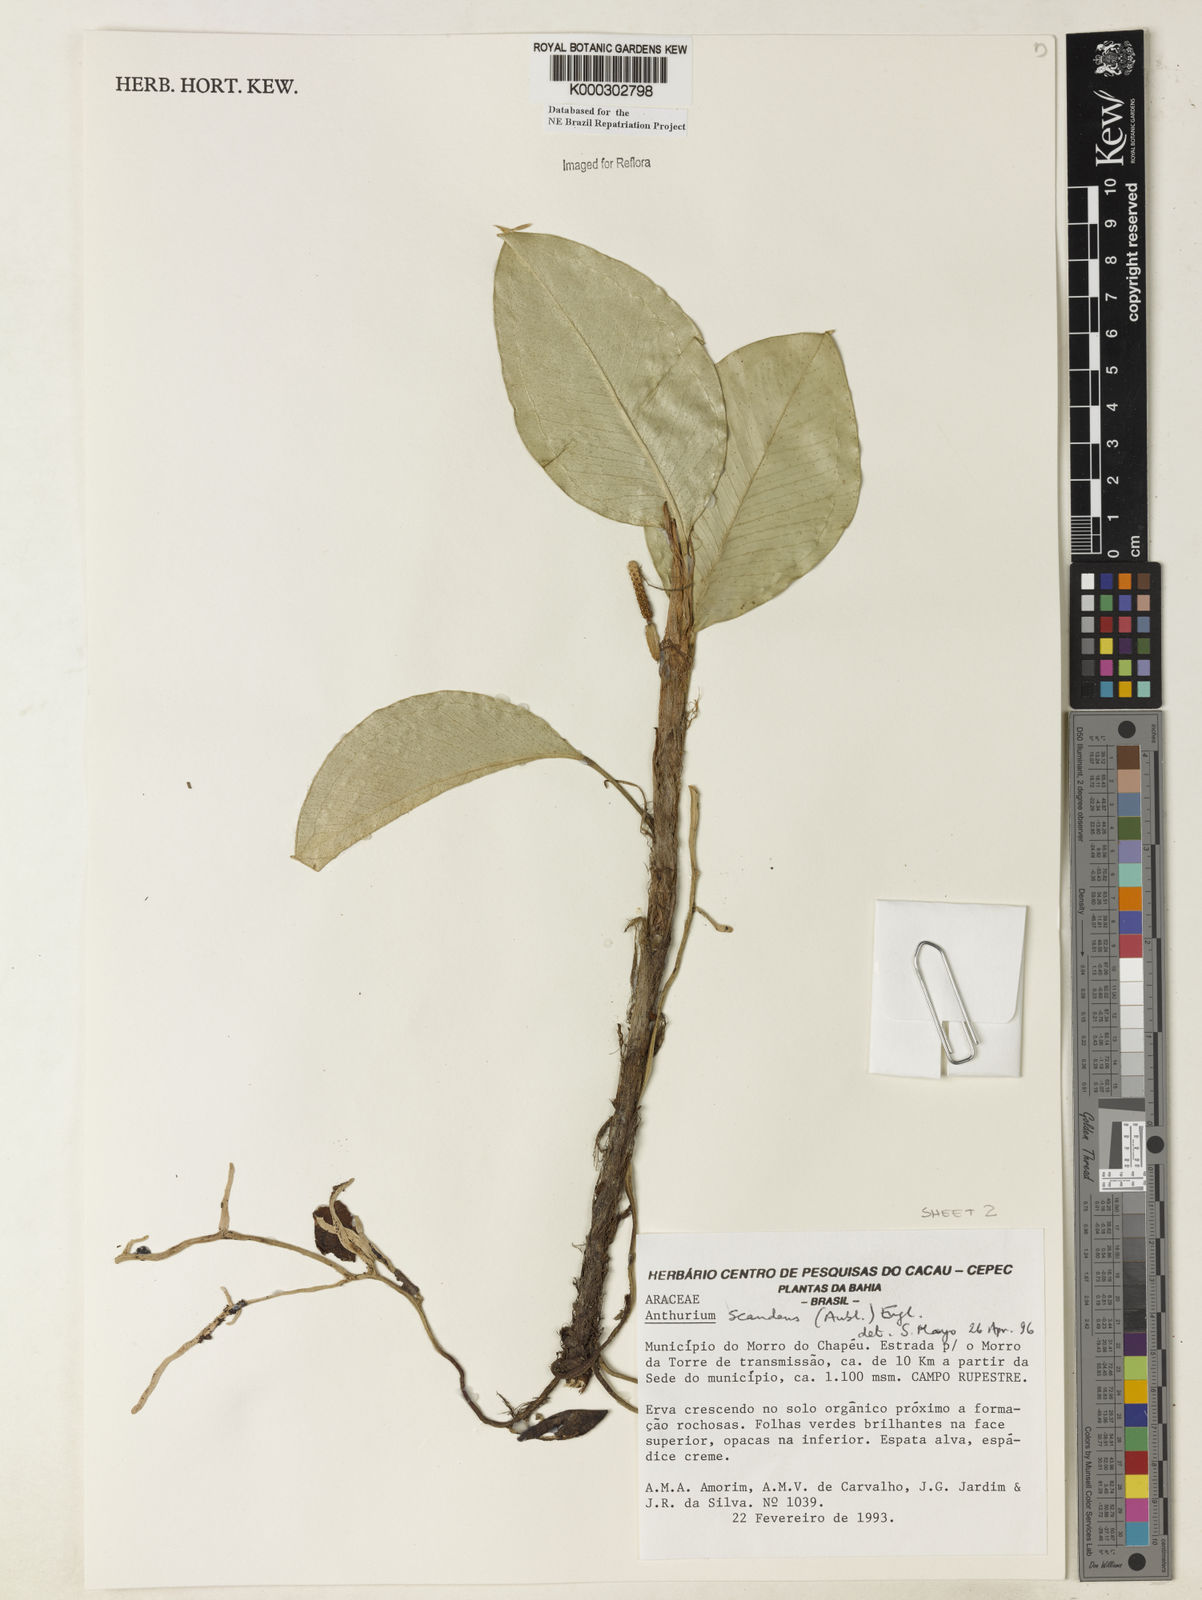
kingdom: Plantae
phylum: Tracheophyta
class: Liliopsida
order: Alismatales
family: Araceae
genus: Anthurium
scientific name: Anthurium scandens
